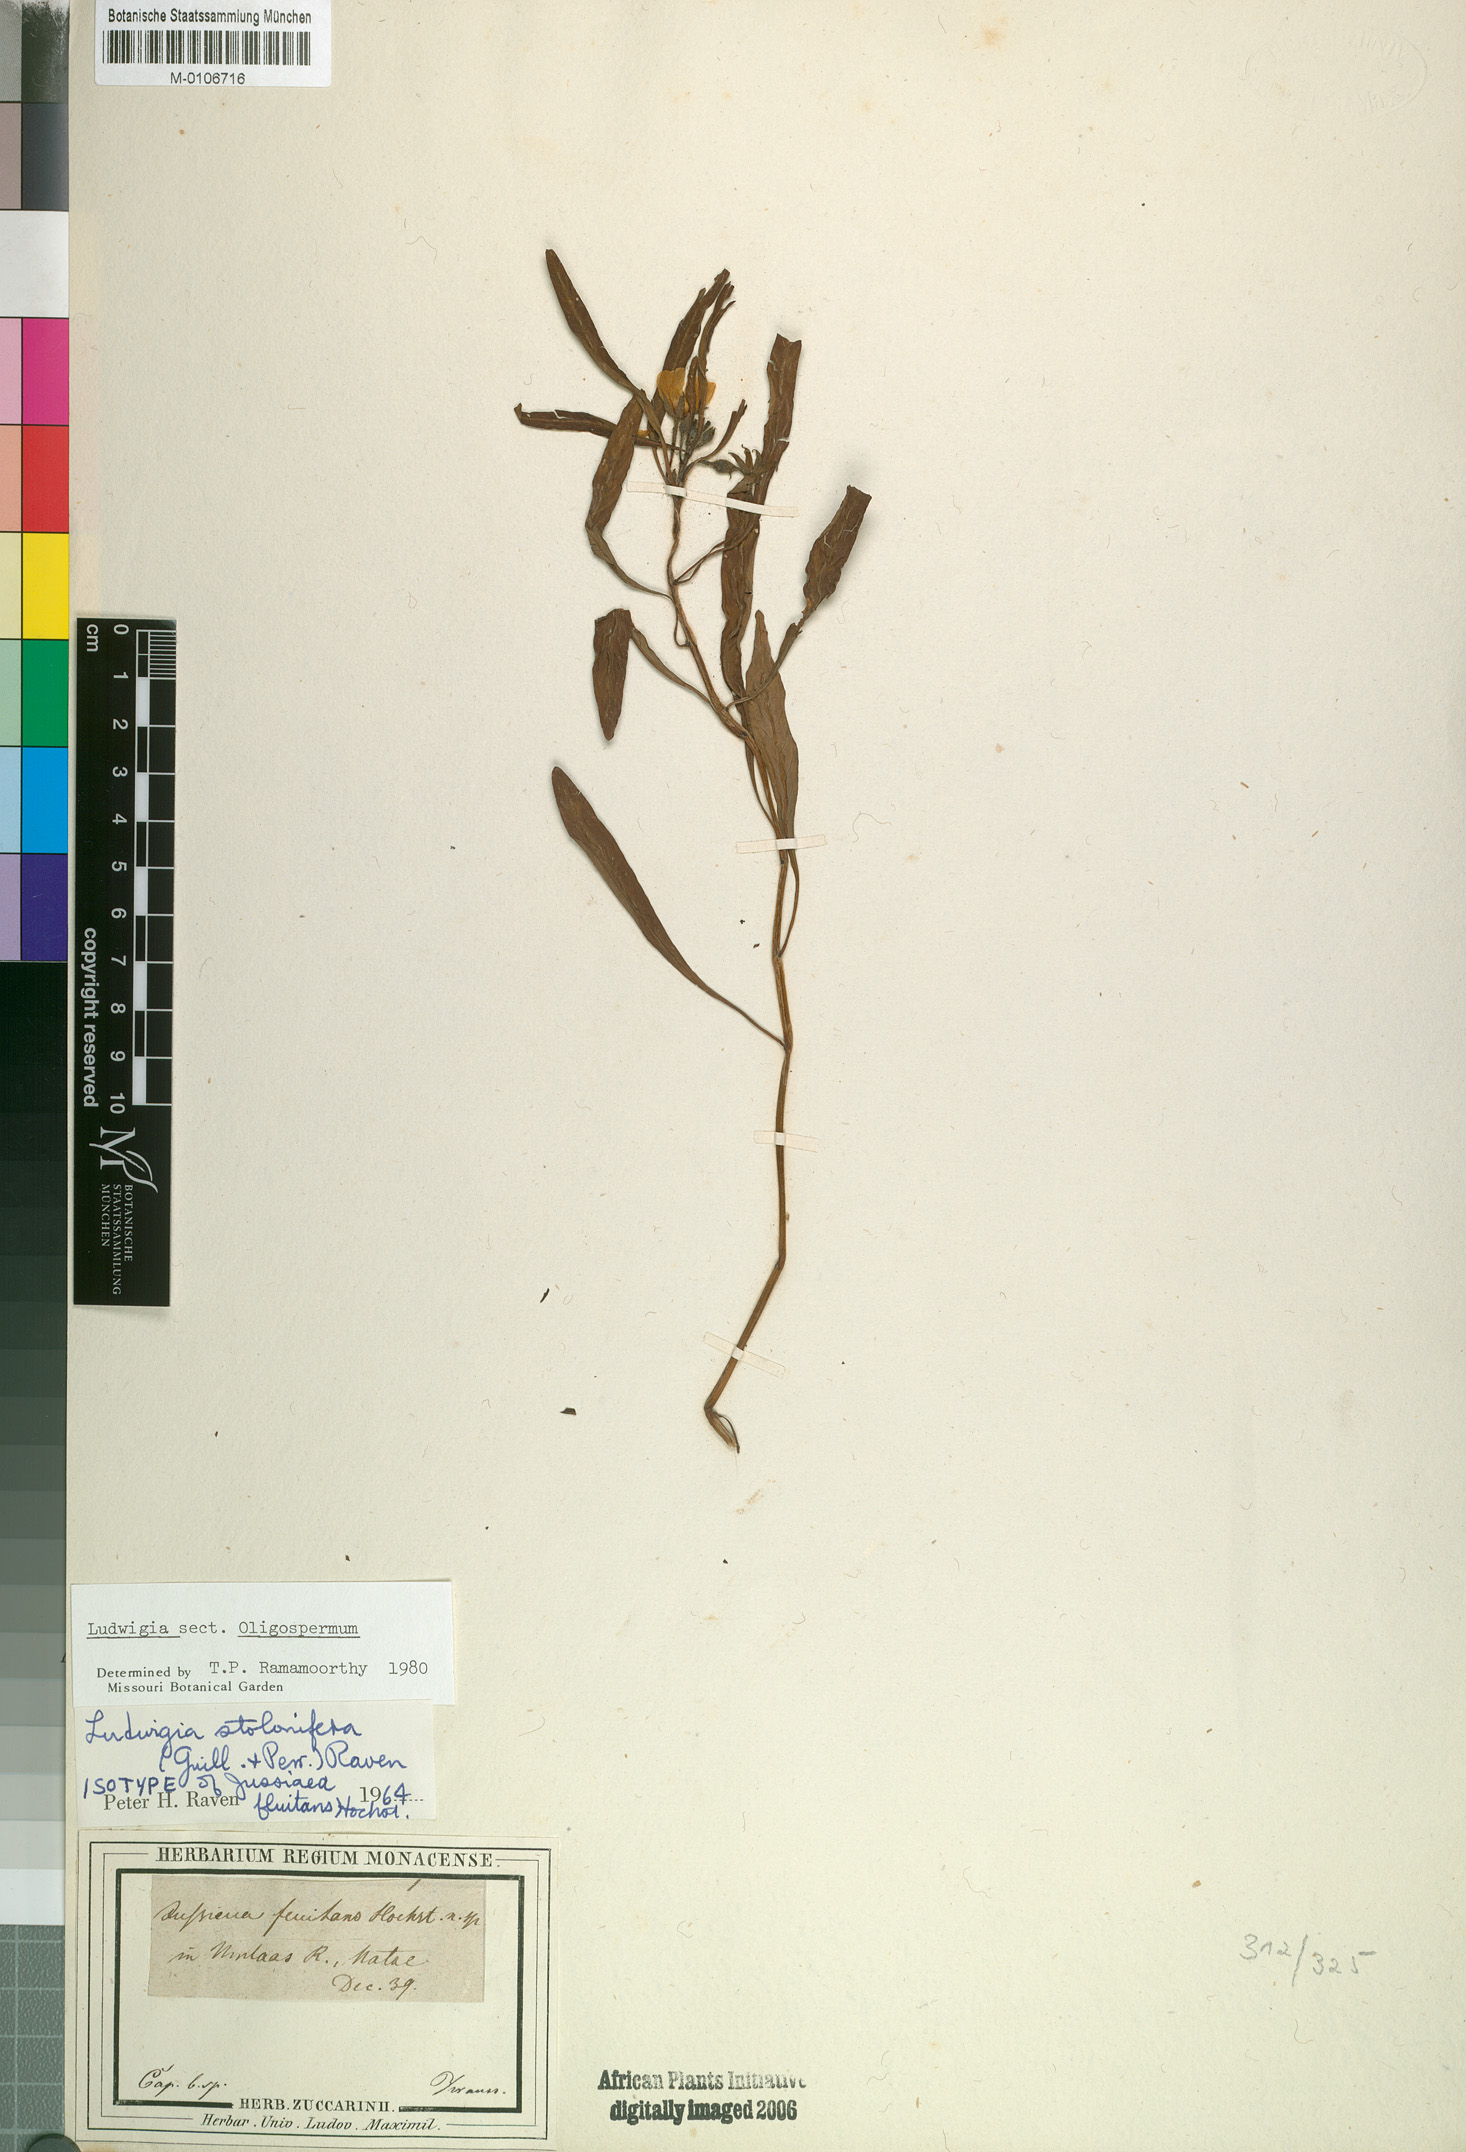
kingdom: Plantae
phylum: Tracheophyta
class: Magnoliopsida
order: Myrtales
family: Onagraceae
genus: Ludwigia
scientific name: Ludwigia adscendens
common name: Creeping water primrose
